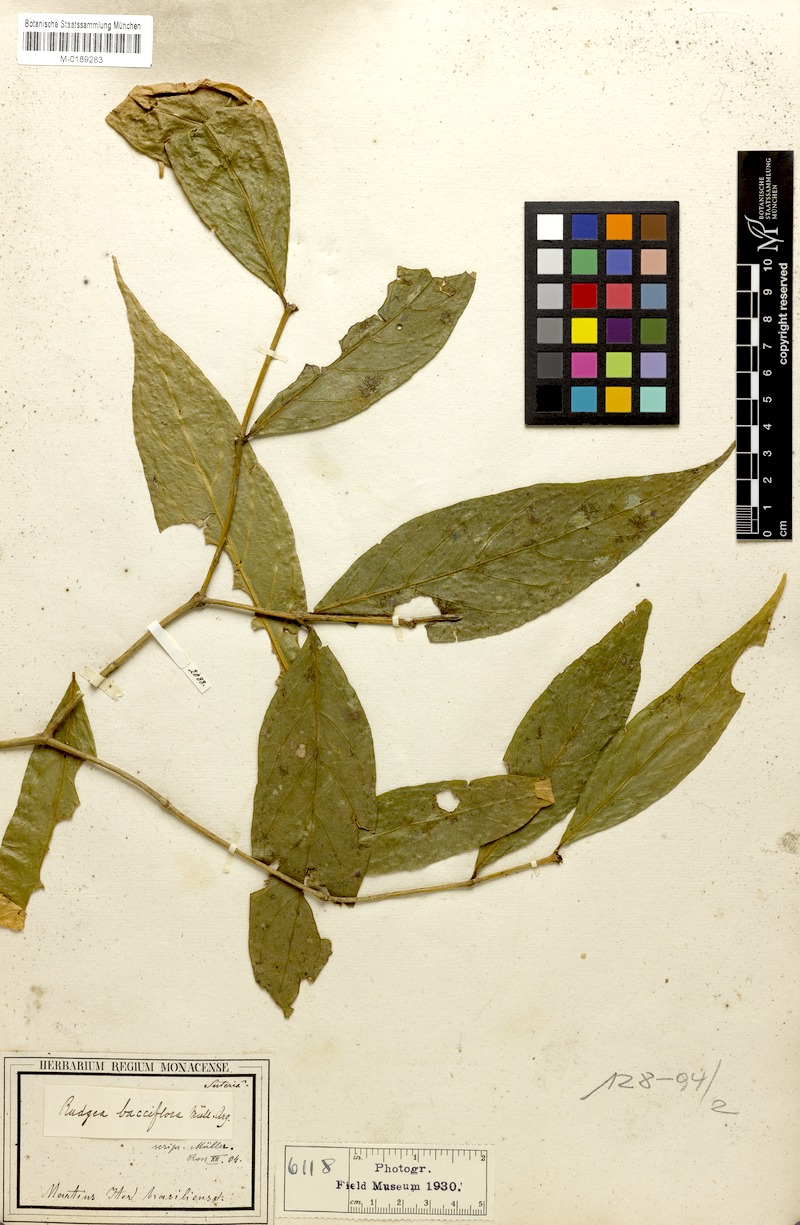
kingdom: Plantae
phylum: Tracheophyta
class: Magnoliopsida
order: Gentianales
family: Rubiaceae
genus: Rudgea
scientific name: Rudgea bacciflora
